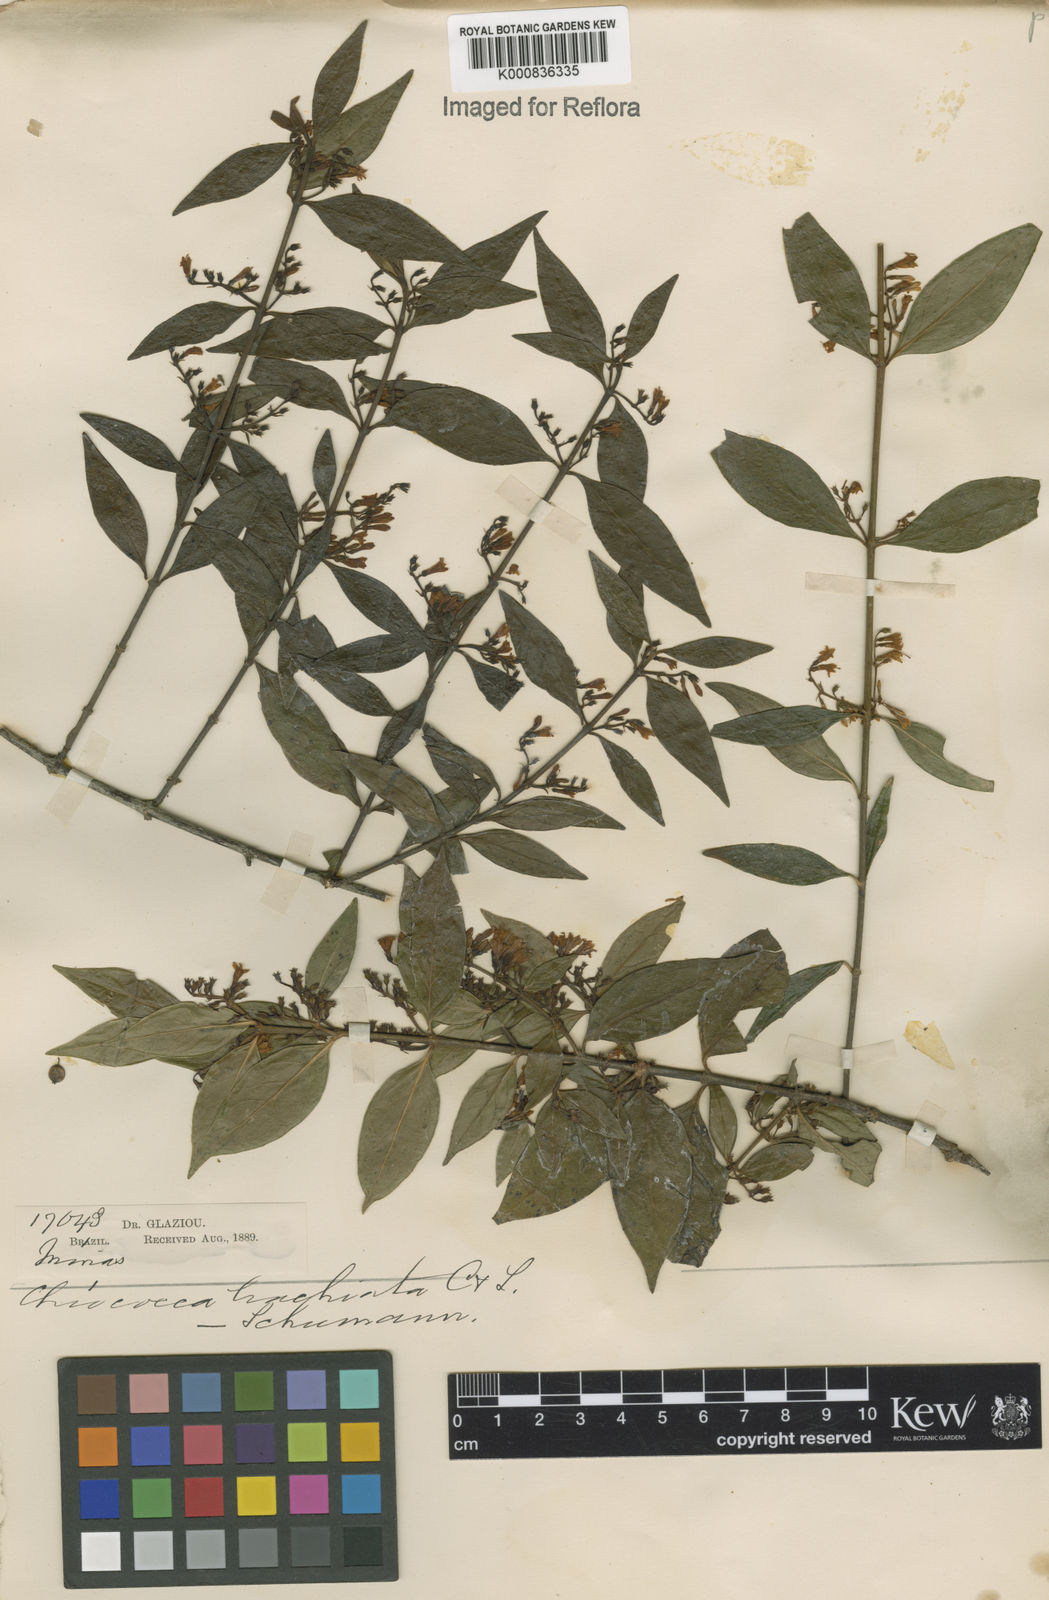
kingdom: Plantae
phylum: Tracheophyta
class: Magnoliopsida
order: Gentianales
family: Rubiaceae
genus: Chiococca
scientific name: Chiococca alba
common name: Snowberry
